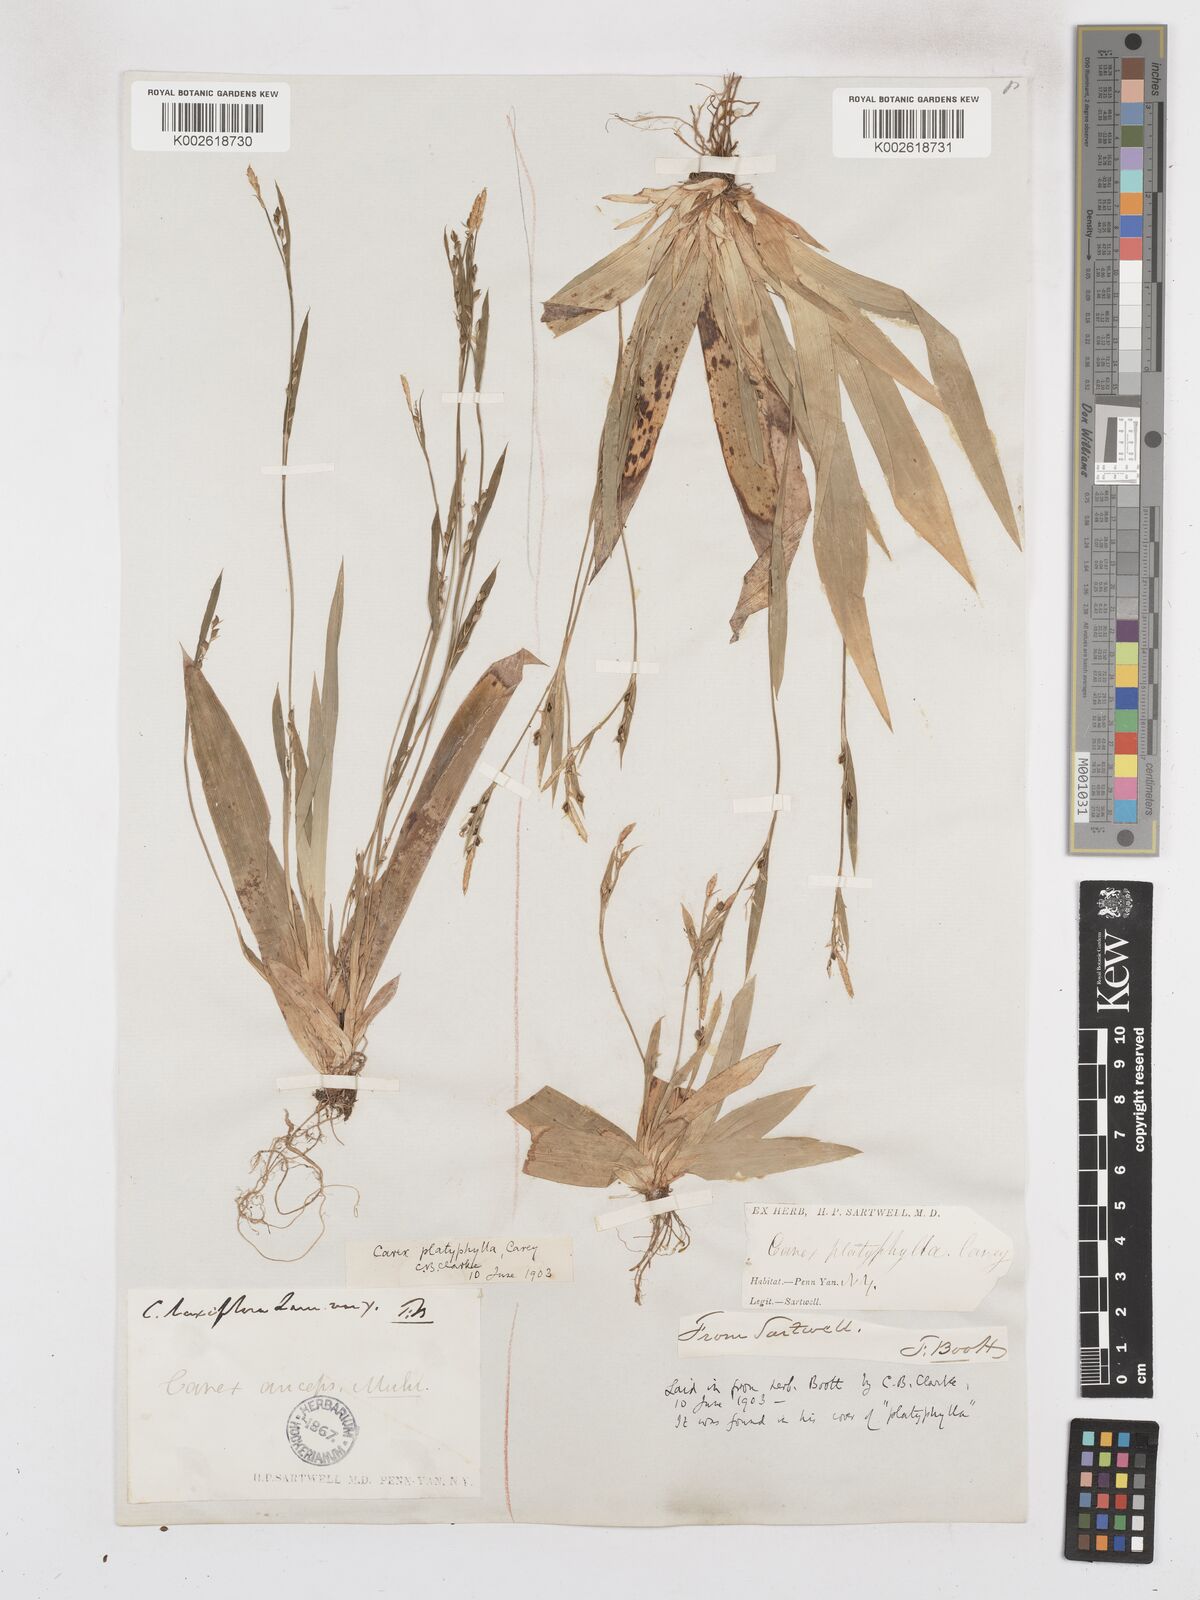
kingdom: Plantae
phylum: Tracheophyta
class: Liliopsida
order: Poales
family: Cyperaceae
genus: Carex
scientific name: Carex platyphylla
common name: Broad-leaved sedge
